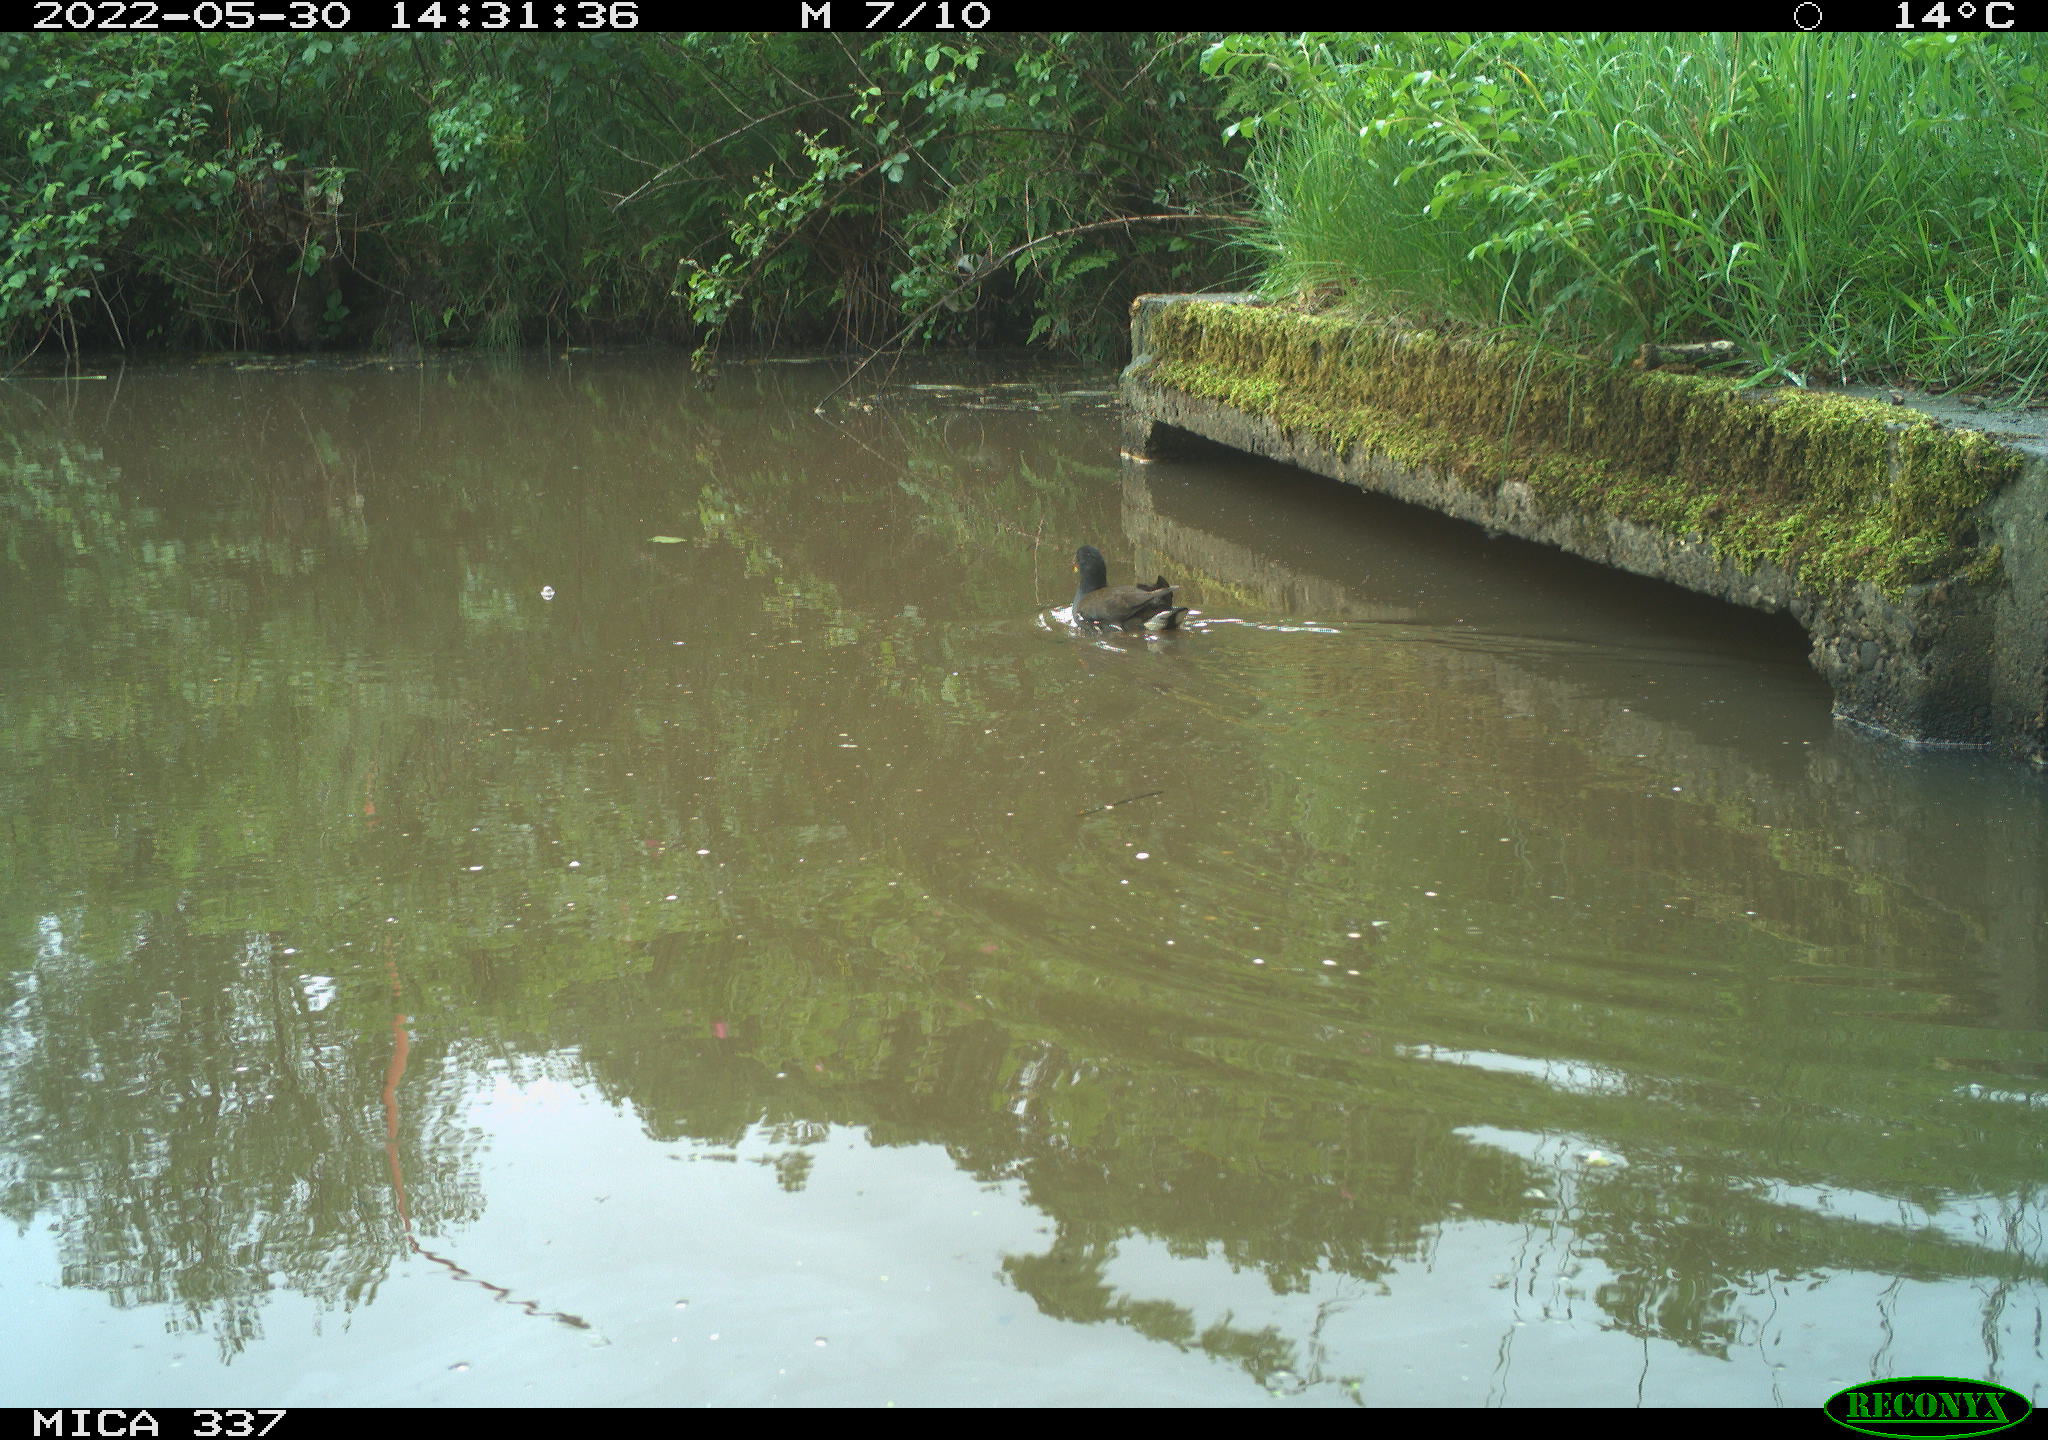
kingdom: Animalia
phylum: Chordata
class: Aves
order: Gruiformes
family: Rallidae
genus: Gallinula
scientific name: Gallinula chloropus
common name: Common moorhen
